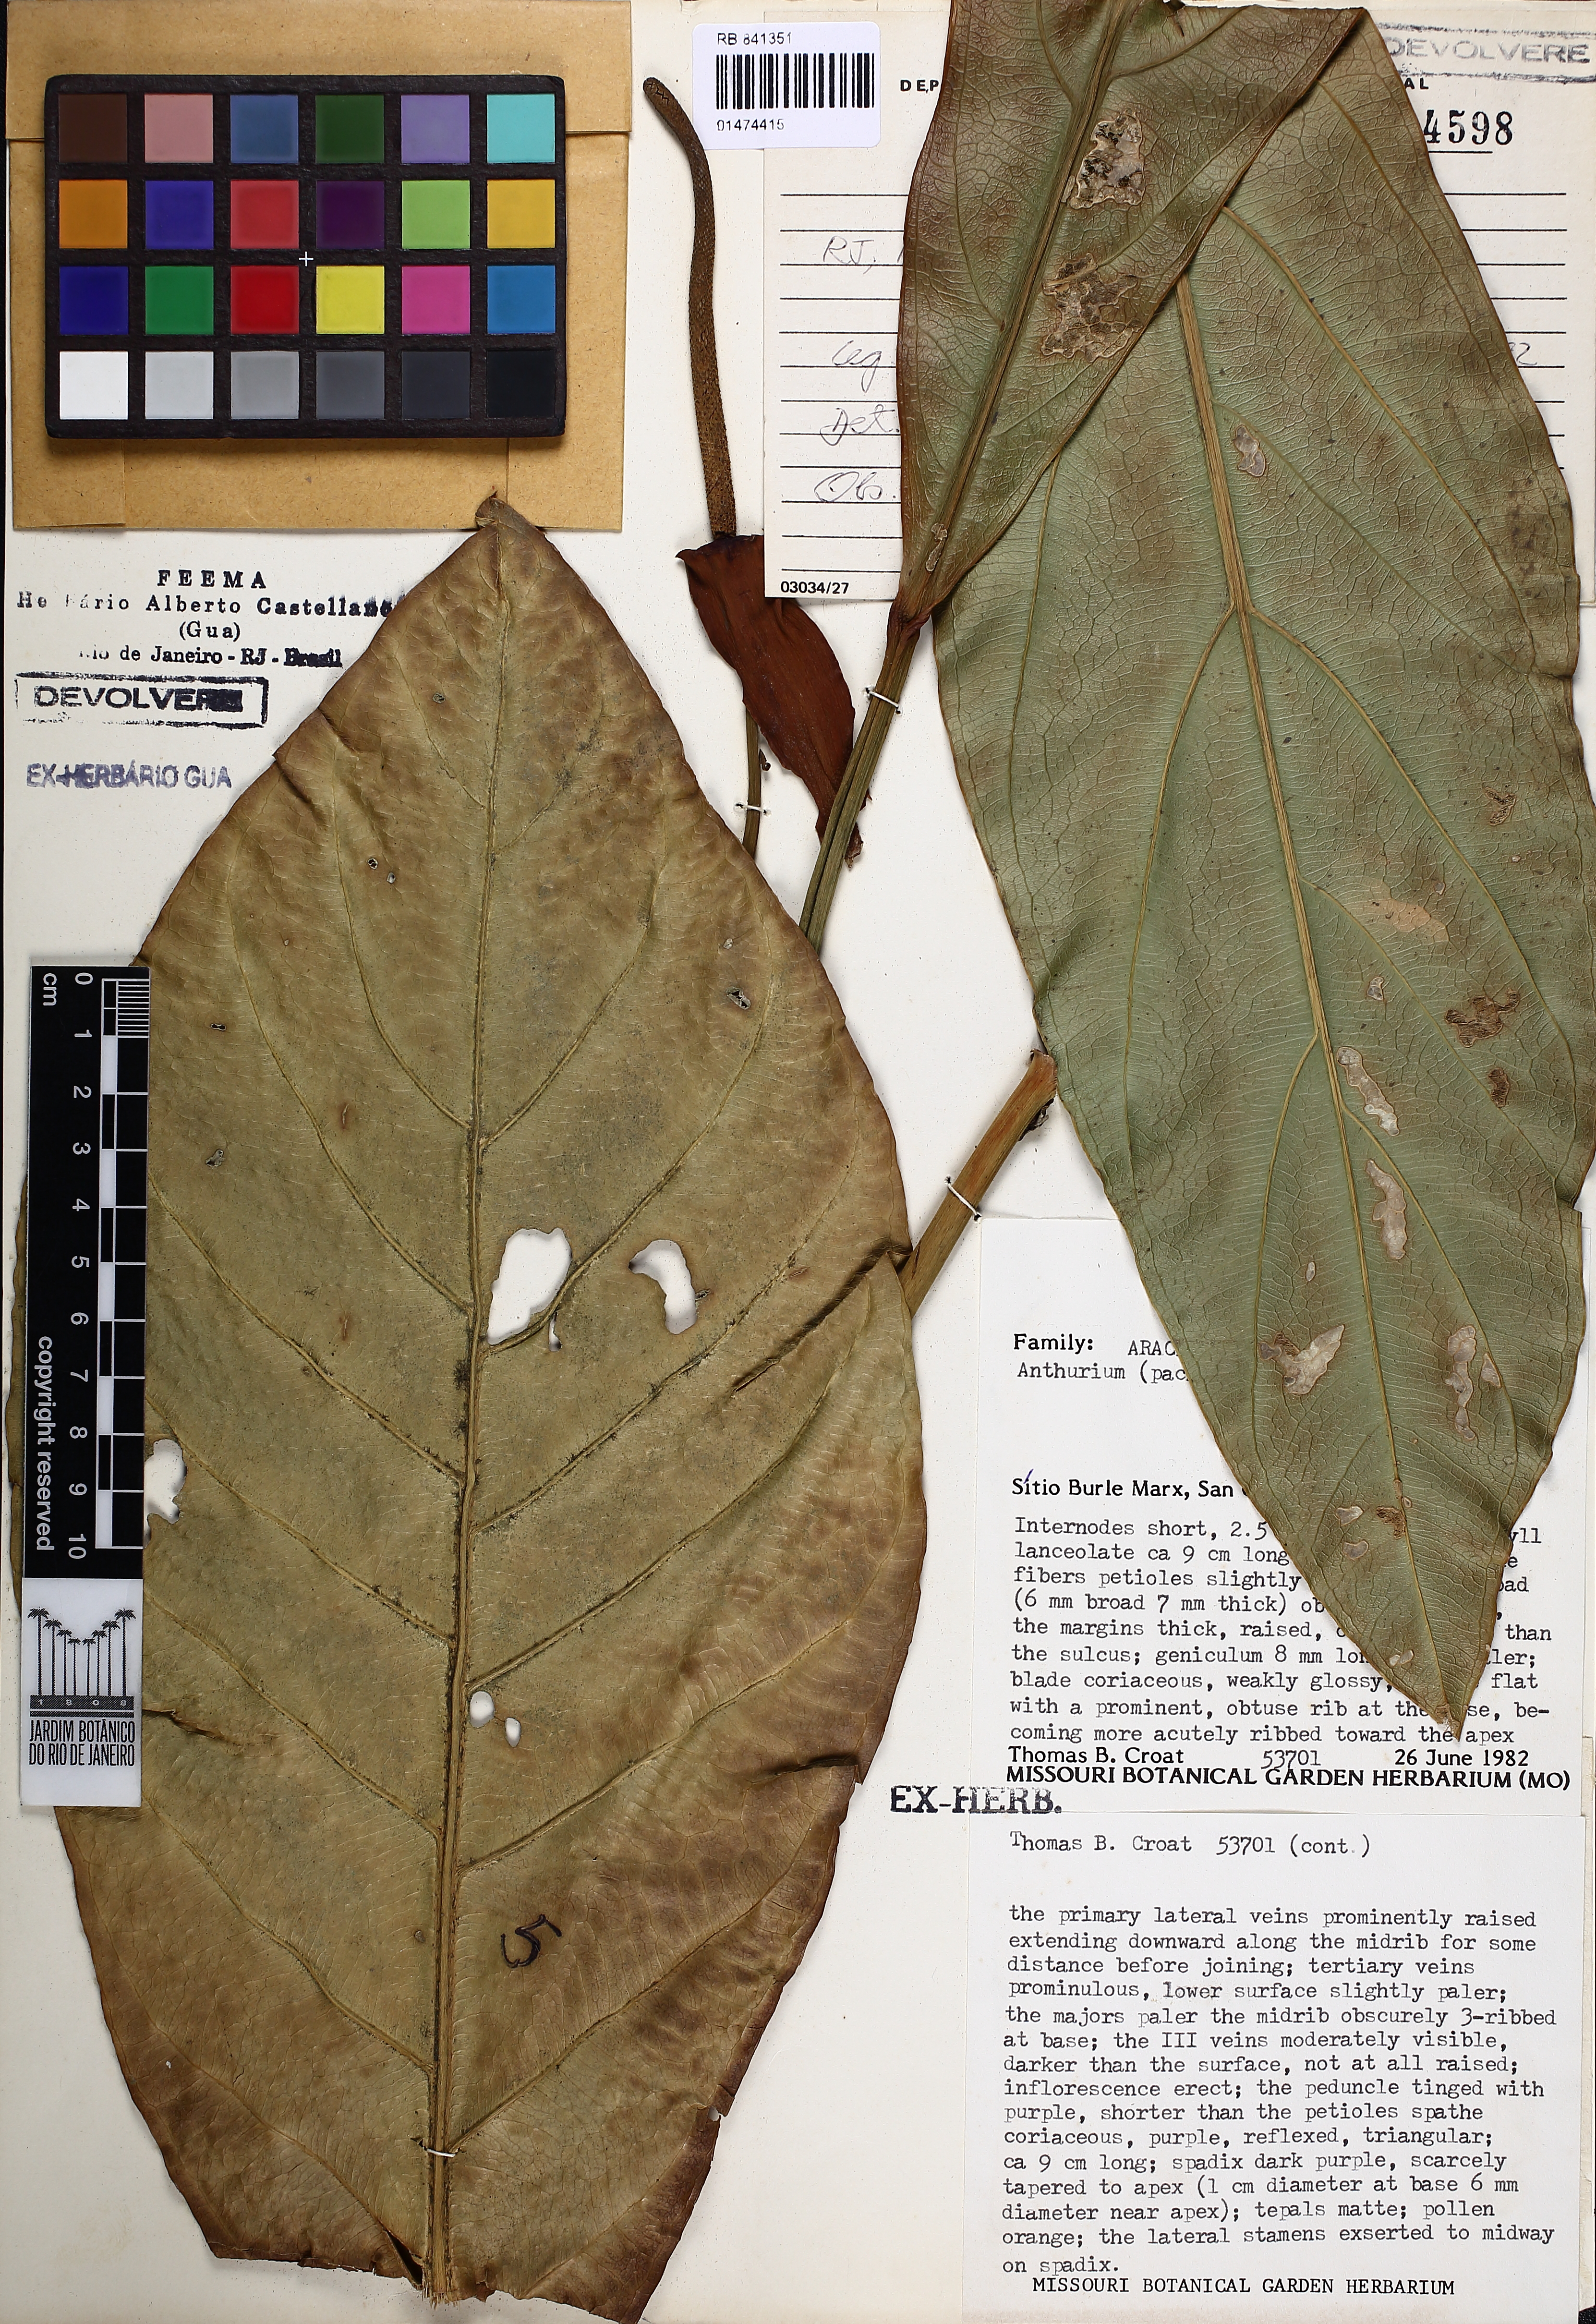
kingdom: Plantae
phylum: Tracheophyta
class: Liliopsida
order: Alismatales
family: Araceae
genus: Anthurium
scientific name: Anthurium
